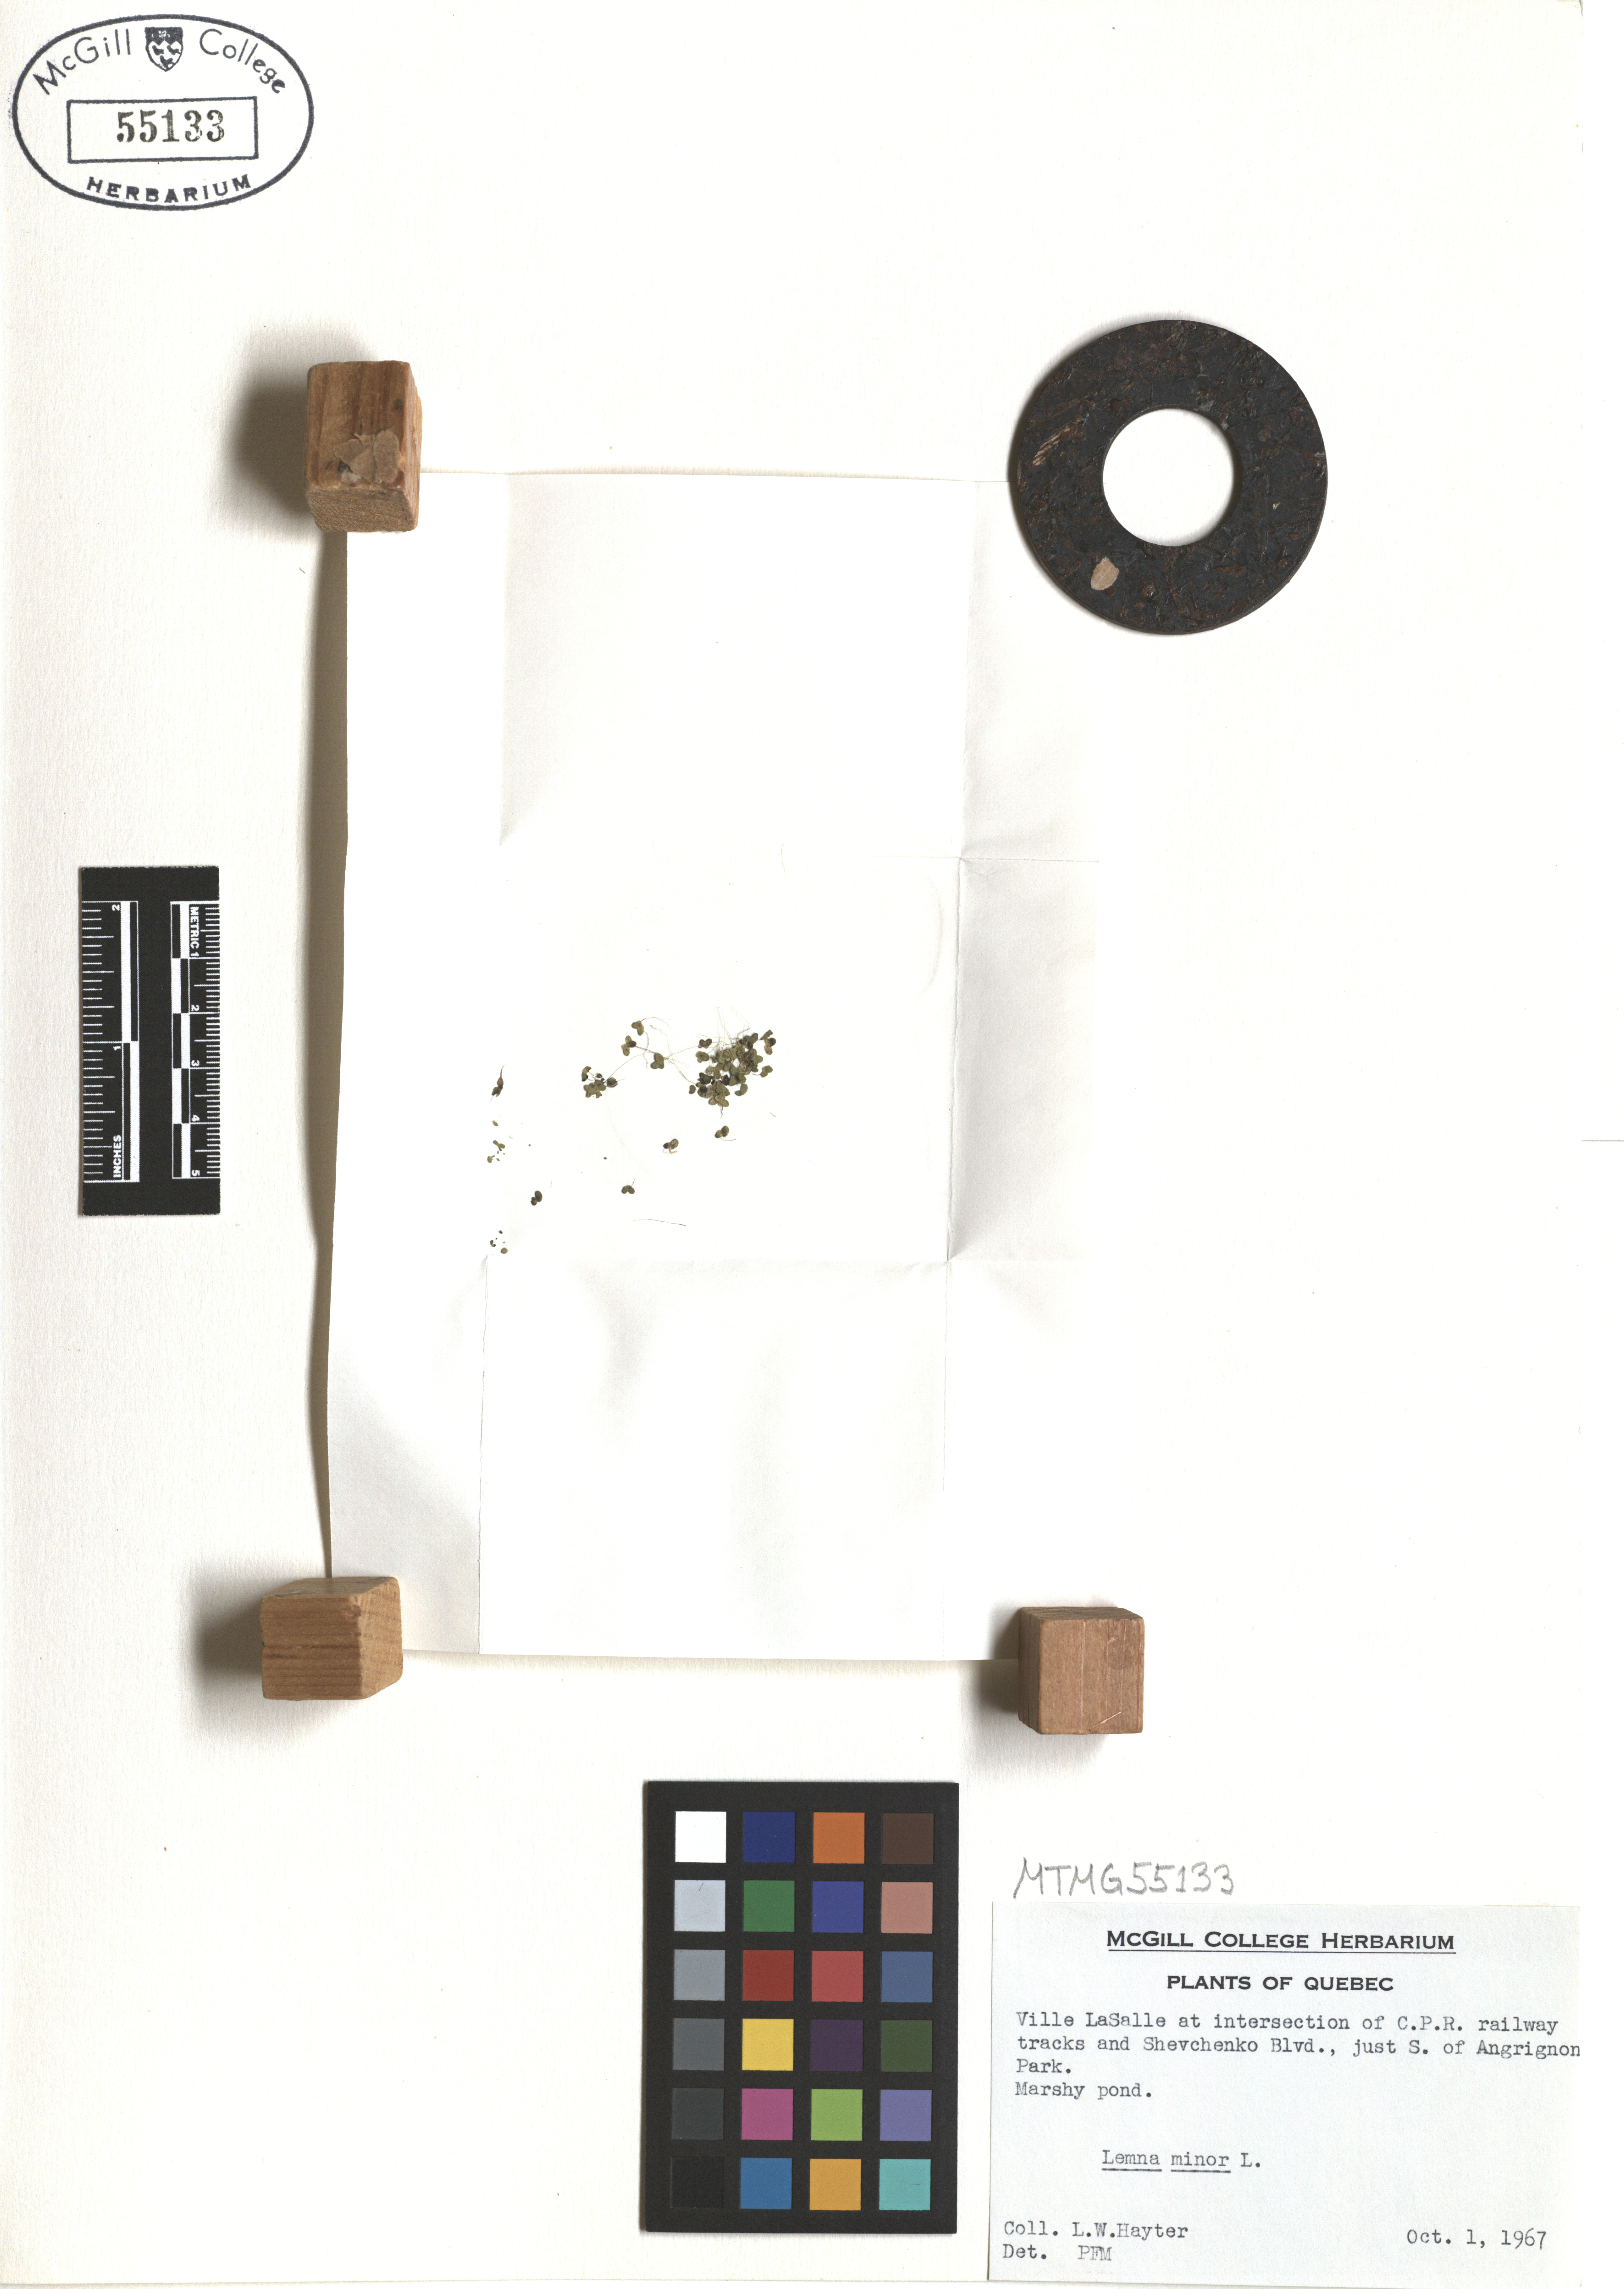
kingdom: Plantae
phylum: Tracheophyta
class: Liliopsida
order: Alismatales
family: Araceae
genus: Lemna
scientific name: Lemna minor
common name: Common duckweed
